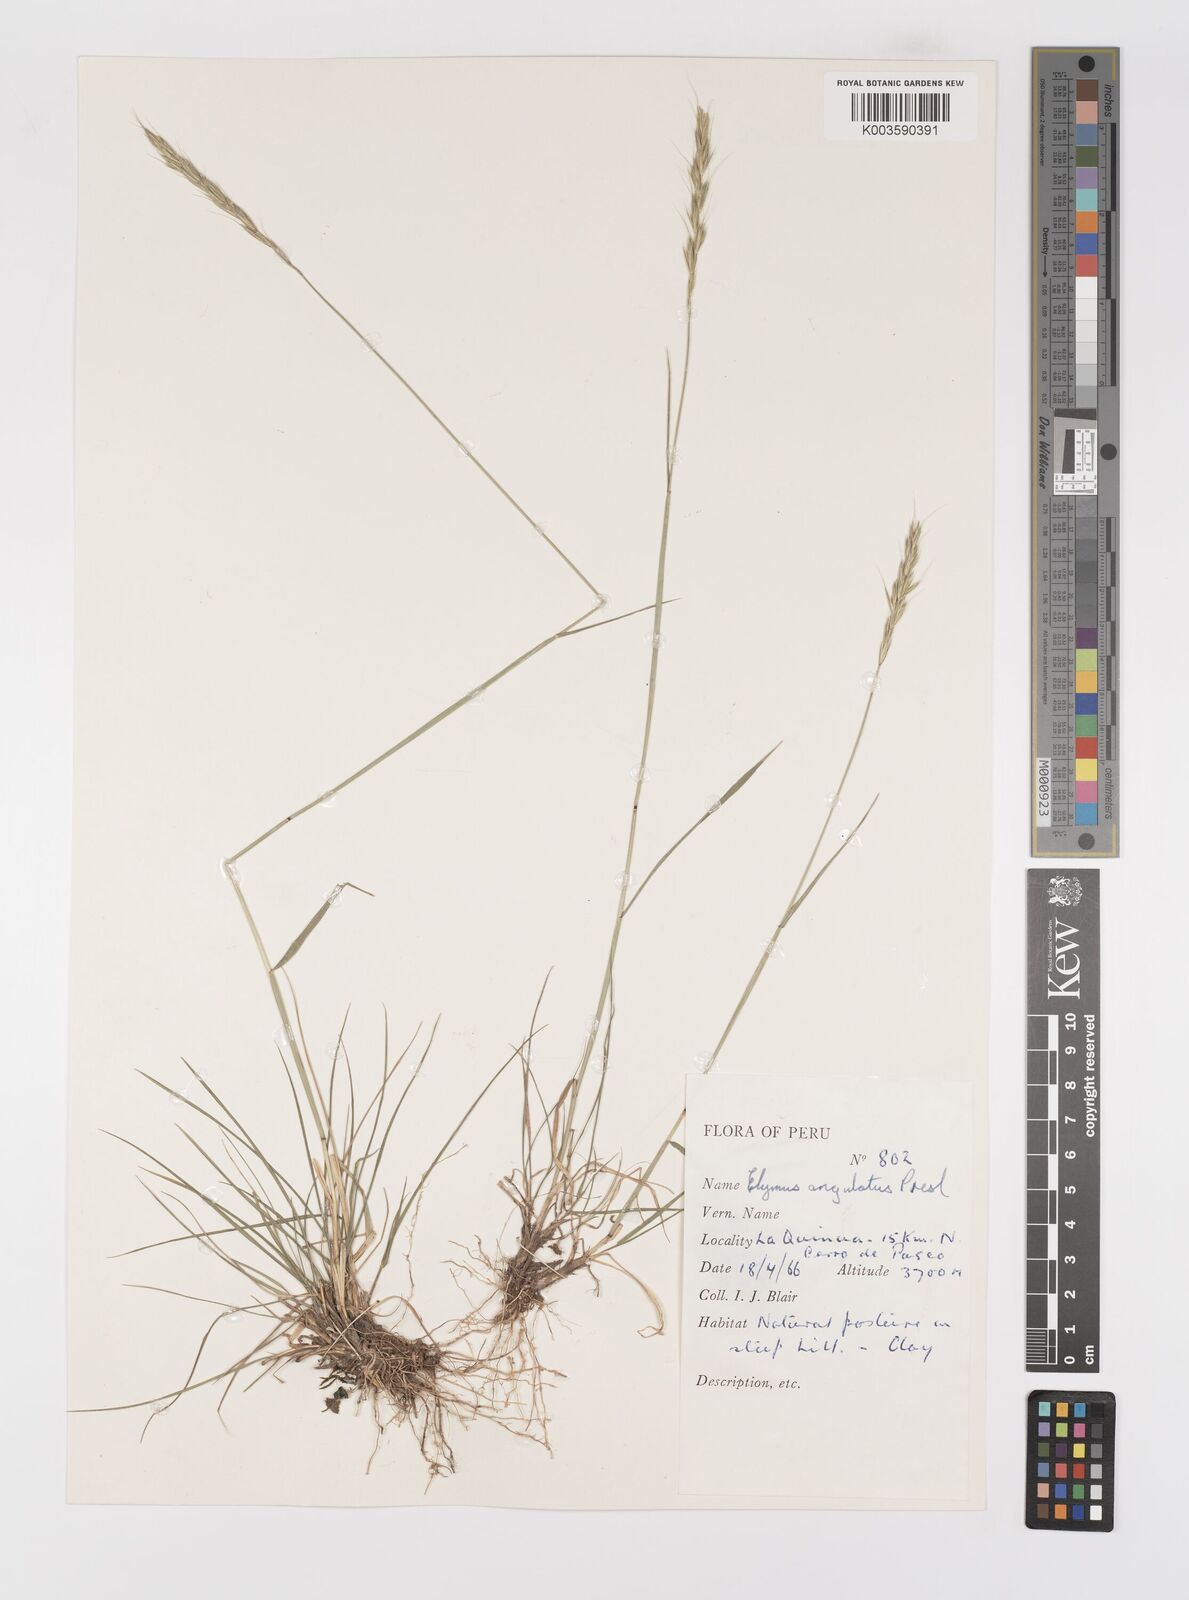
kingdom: Plantae
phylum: Tracheophyta
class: Liliopsida
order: Poales
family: Poaceae
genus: Elymus
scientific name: Elymus angulatus
